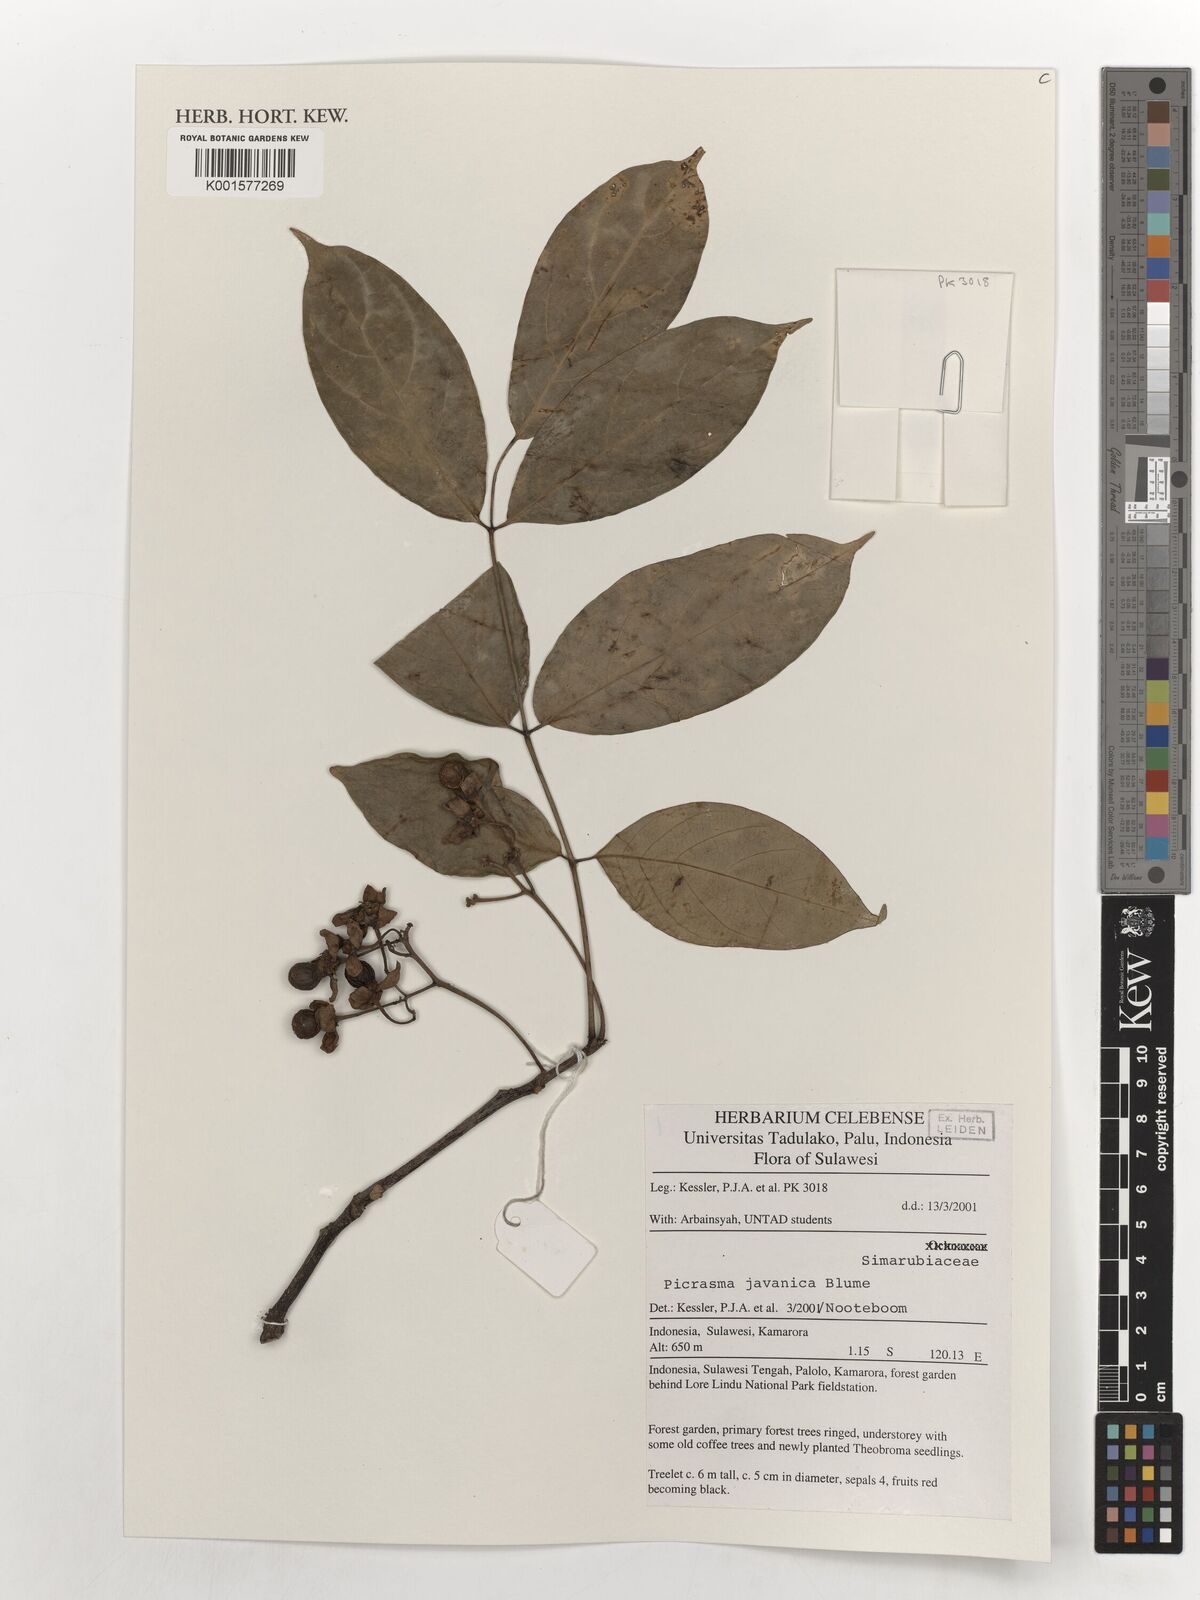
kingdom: Plantae
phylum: Tracheophyta
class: Magnoliopsida
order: Sapindales
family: Simaroubaceae
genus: Picrasma
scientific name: Picrasma javanica
